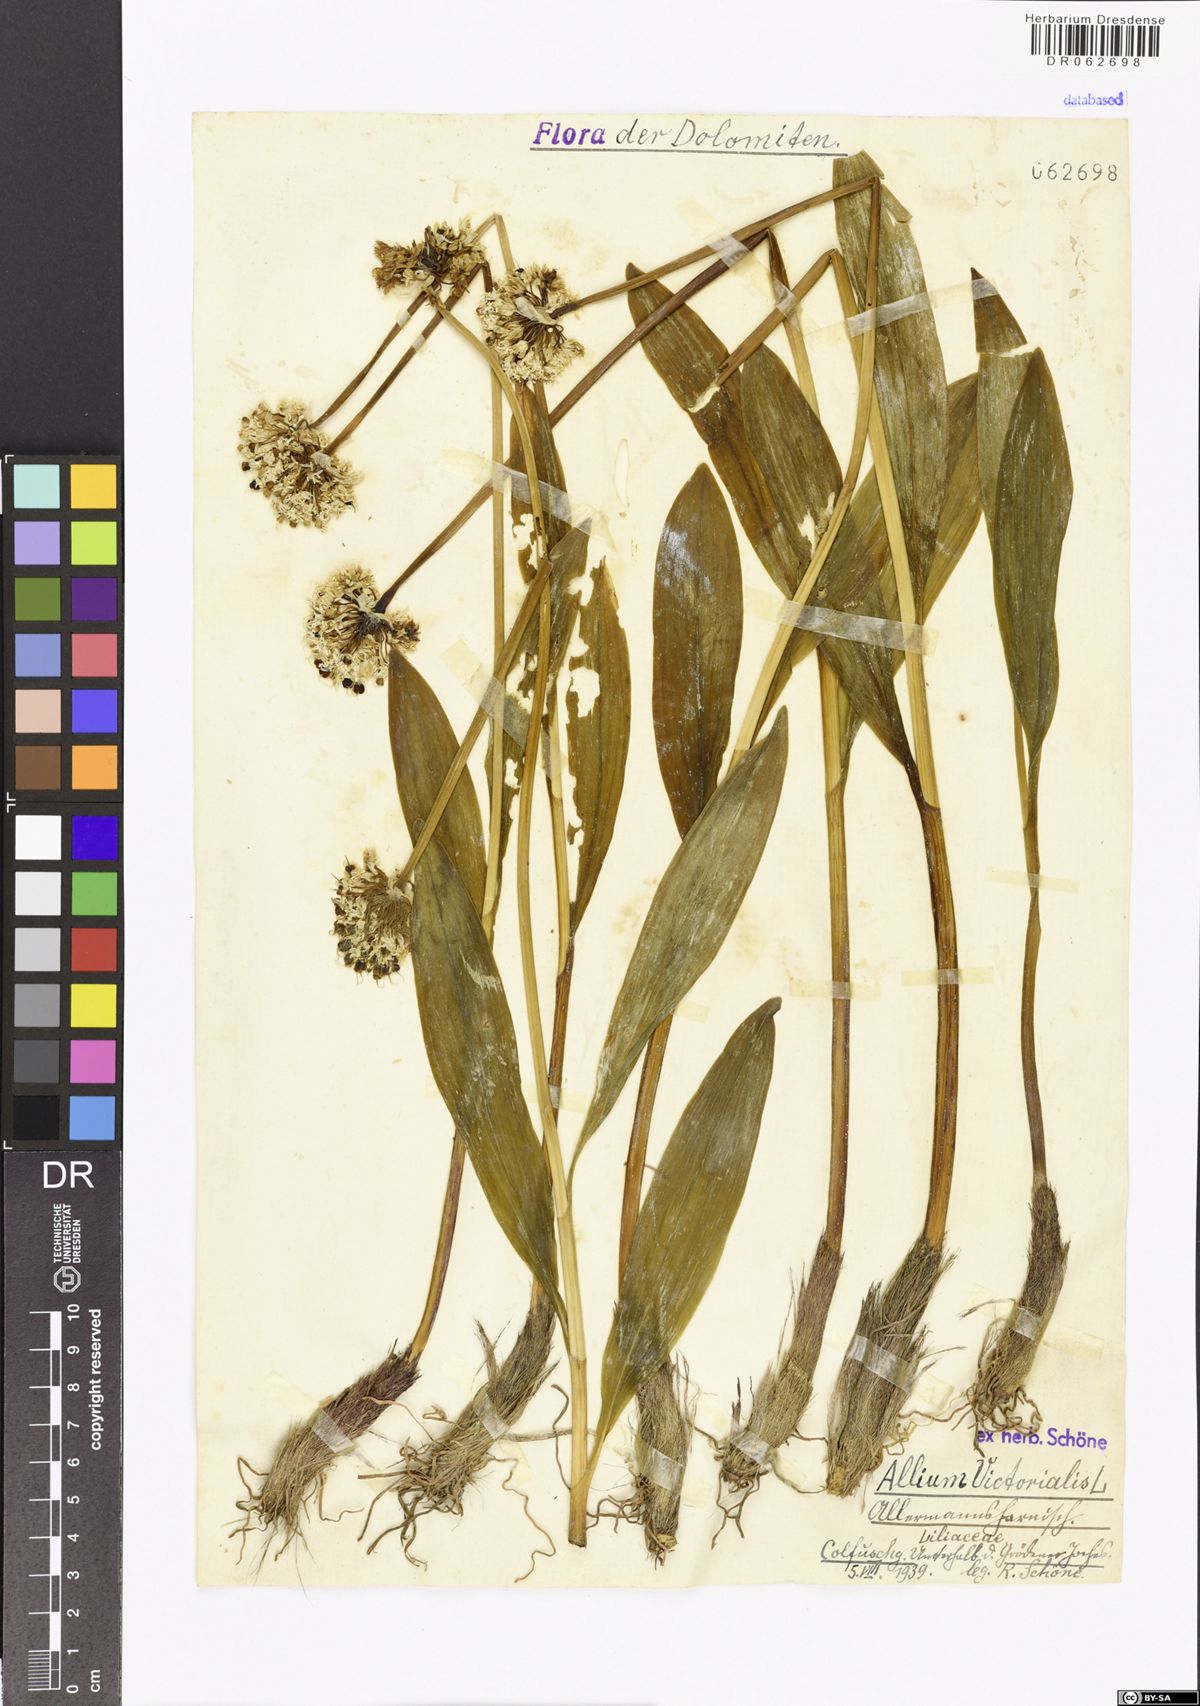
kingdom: Plantae
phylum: Tracheophyta
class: Liliopsida
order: Asparagales
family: Amaryllidaceae
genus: Allium
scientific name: Allium victorialis
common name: Alpine leek
